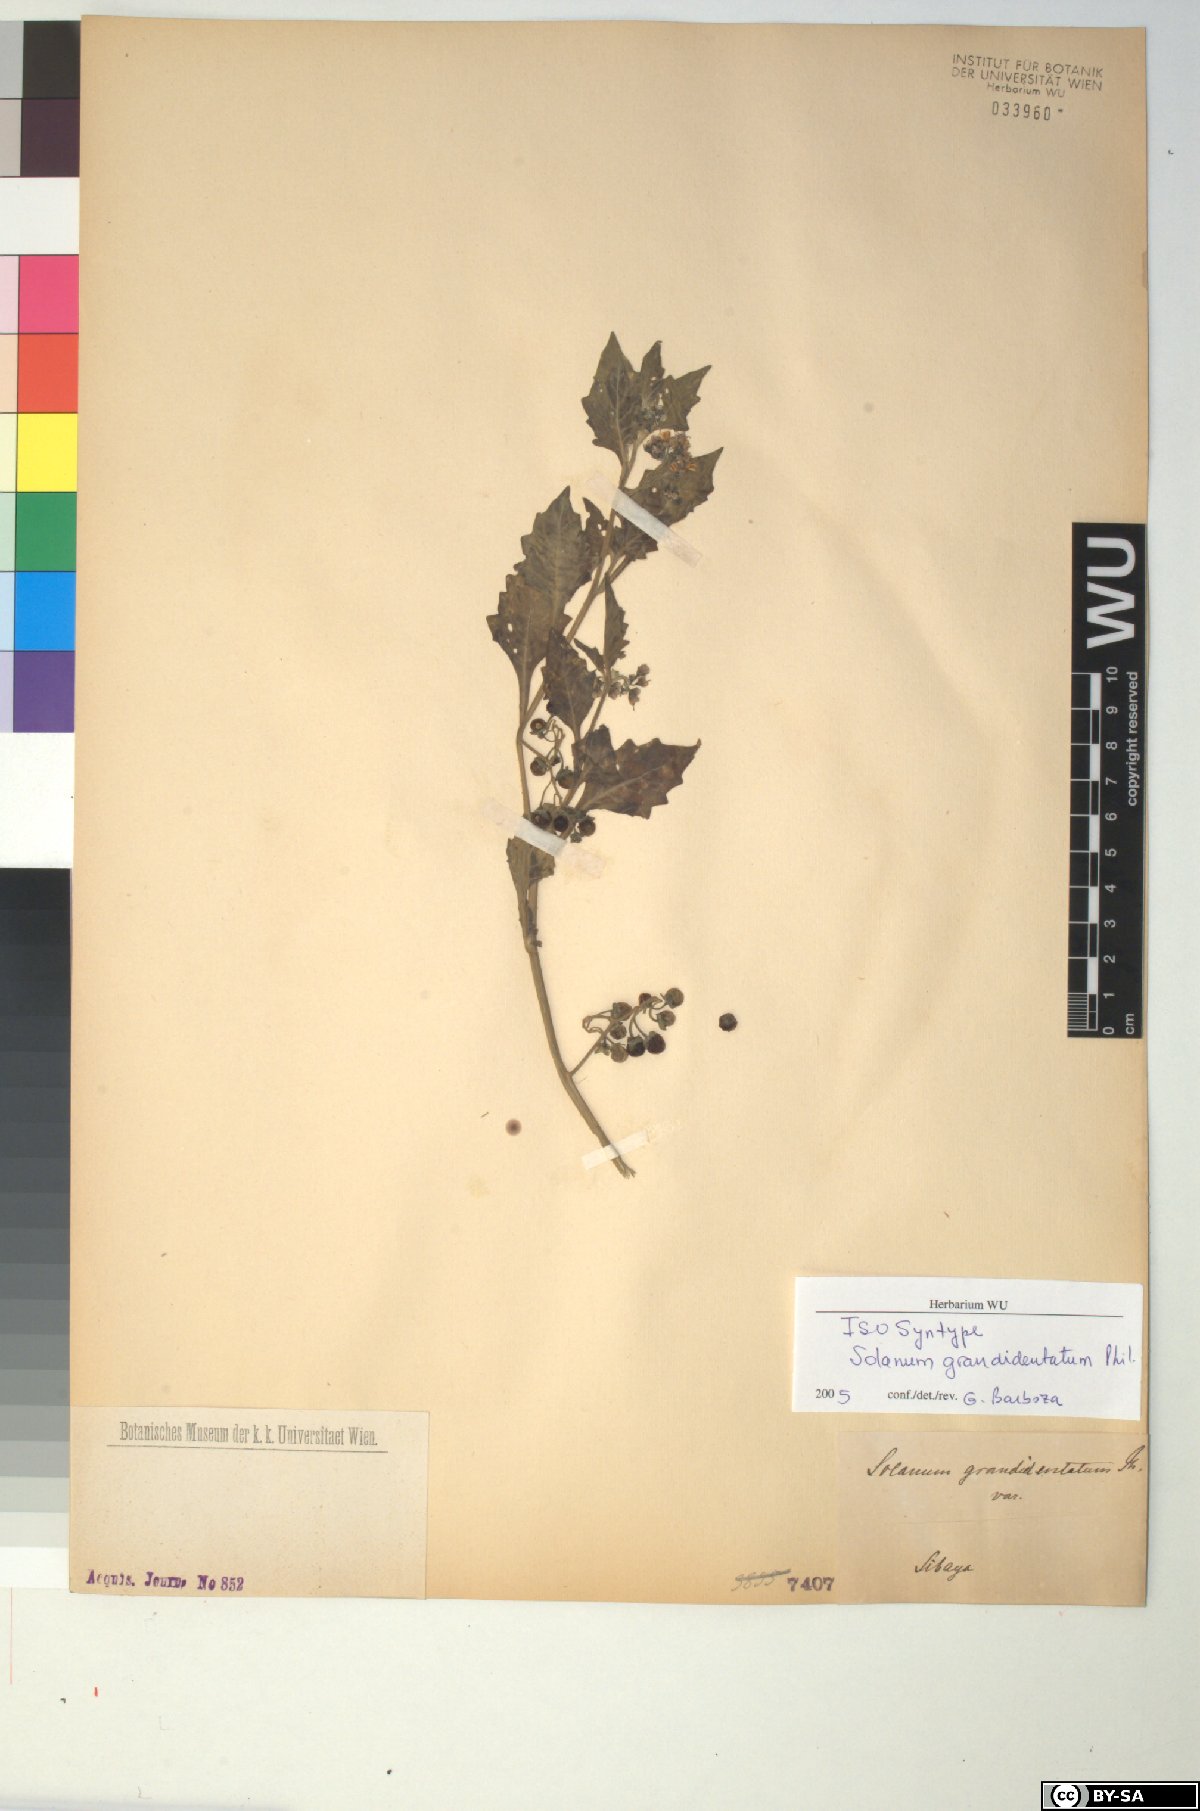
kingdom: Plantae
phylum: Tracheophyta
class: Magnoliopsida
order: Solanales
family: Solanaceae
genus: Solanum
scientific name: Solanum grandidentatum
